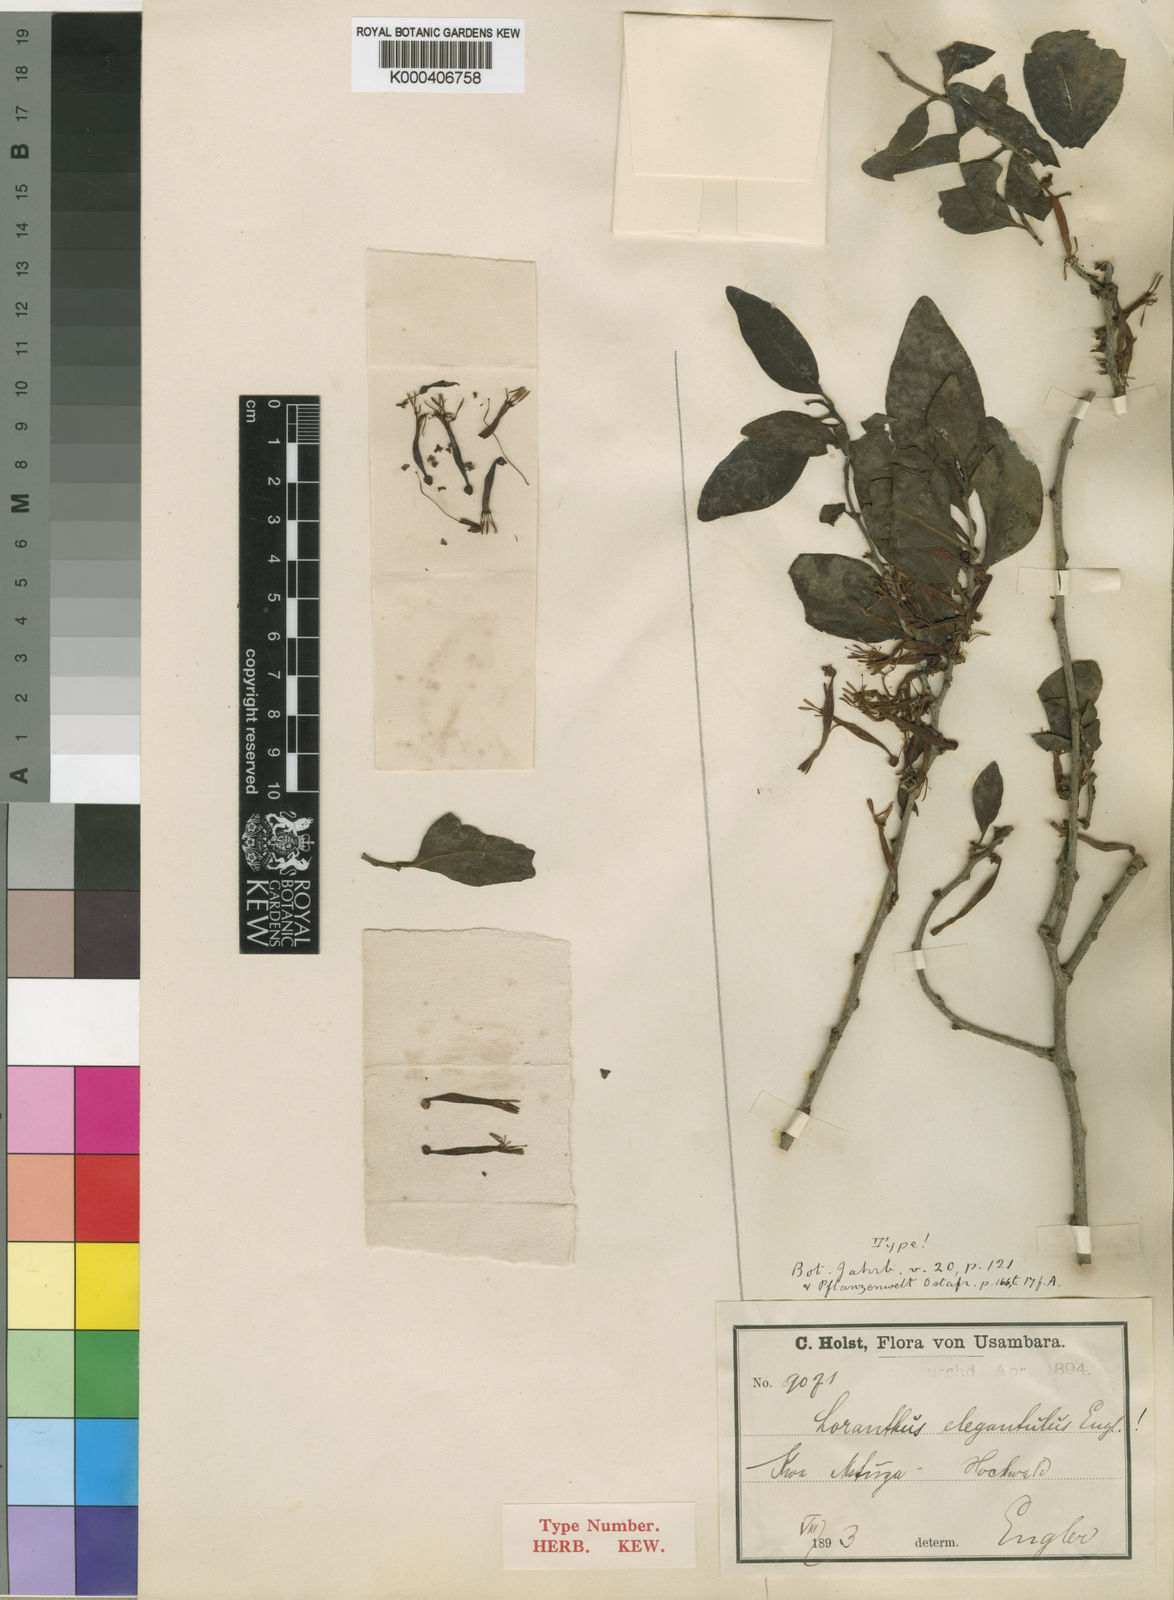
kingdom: Plantae
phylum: Tracheophyta
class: Magnoliopsida
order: Santalales
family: Loranthaceae
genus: Loranthella
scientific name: Loranthella kilimandscharica
